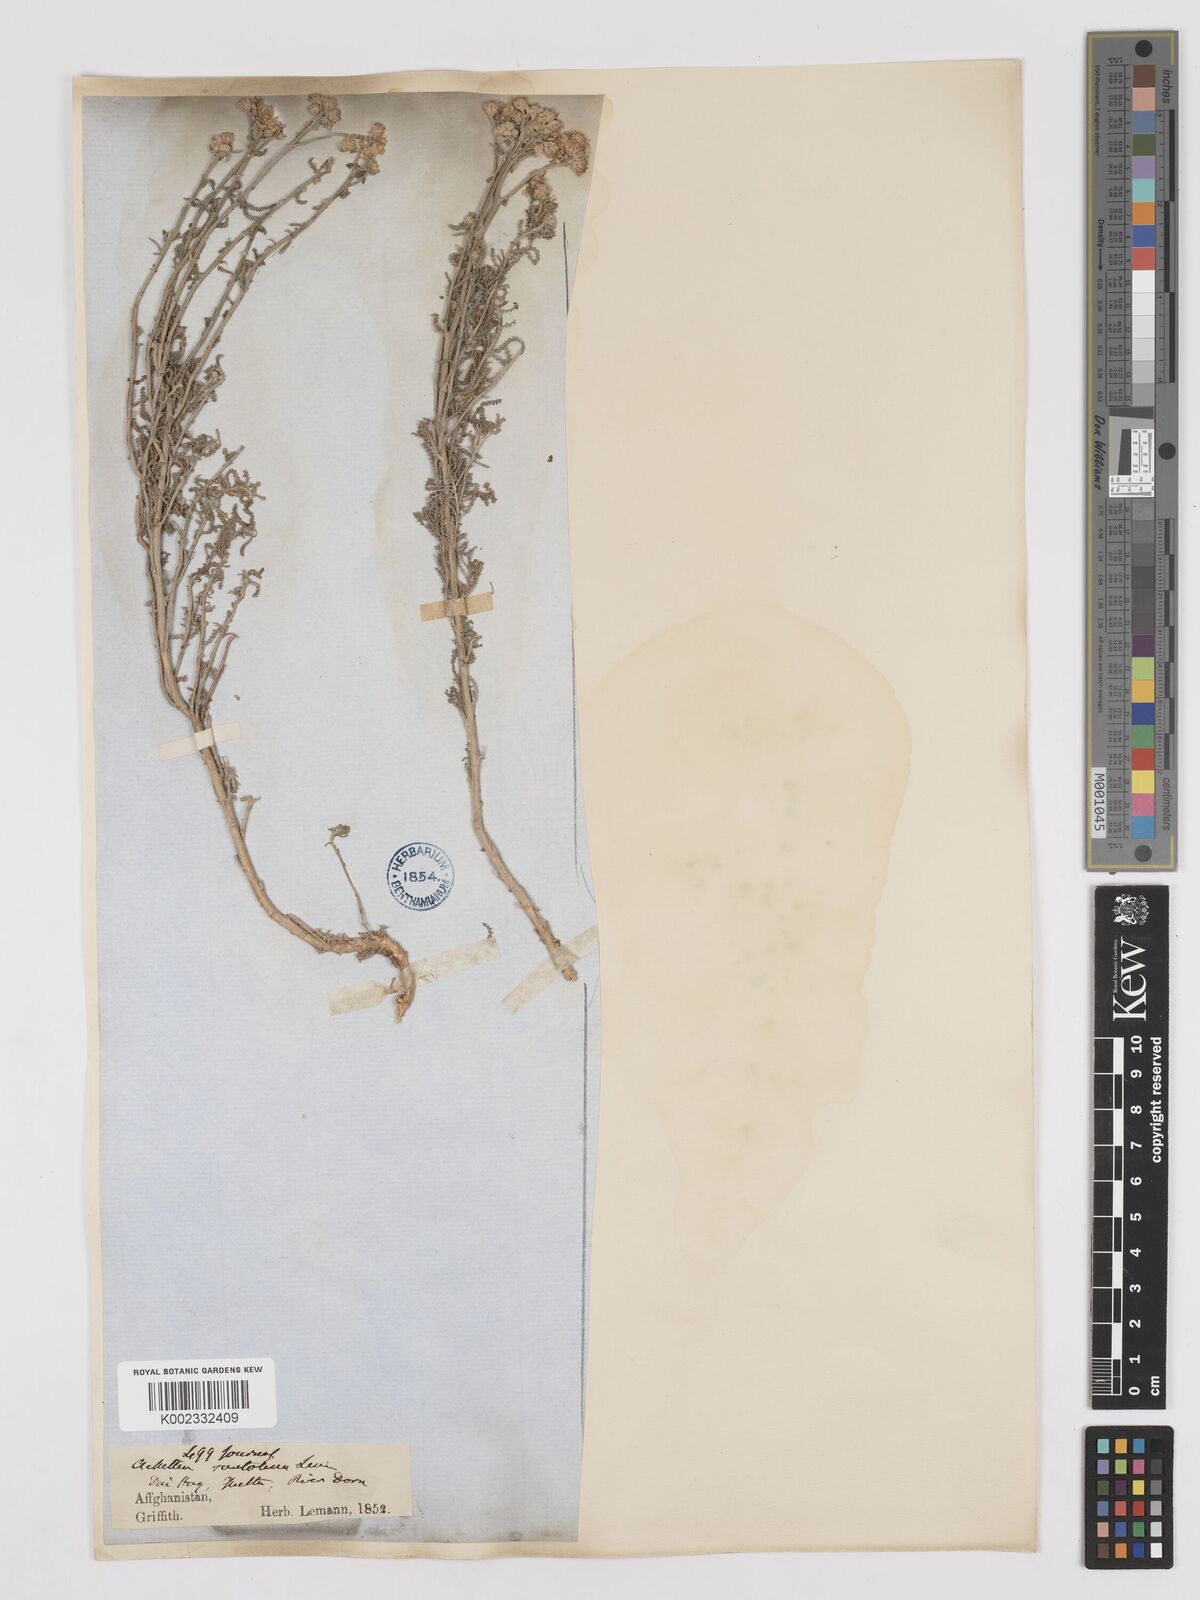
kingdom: Plantae
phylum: Tracheophyta
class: Magnoliopsida
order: Asterales
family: Asteraceae
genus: Achillea
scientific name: Achillea tenuifolia
